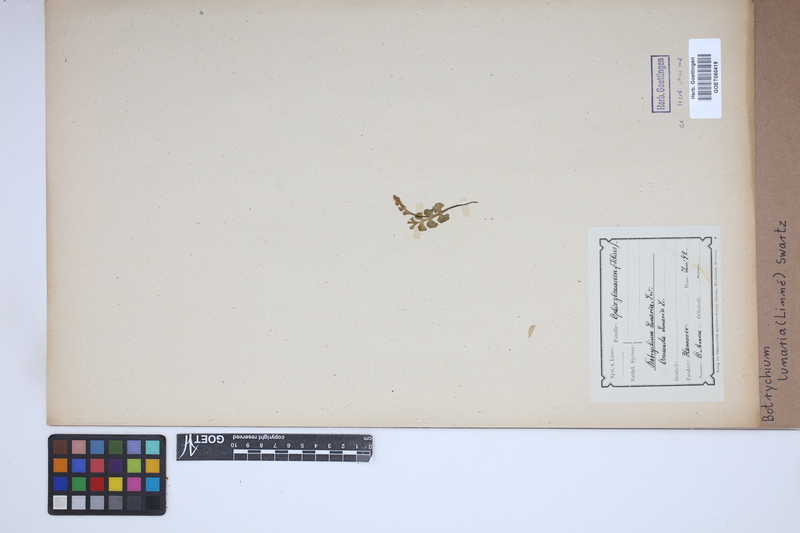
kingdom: Plantae
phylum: Tracheophyta
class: Polypodiopsida
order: Ophioglossales
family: Ophioglossaceae
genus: Botrychium
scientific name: Botrychium lunaria
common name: Moonwort
